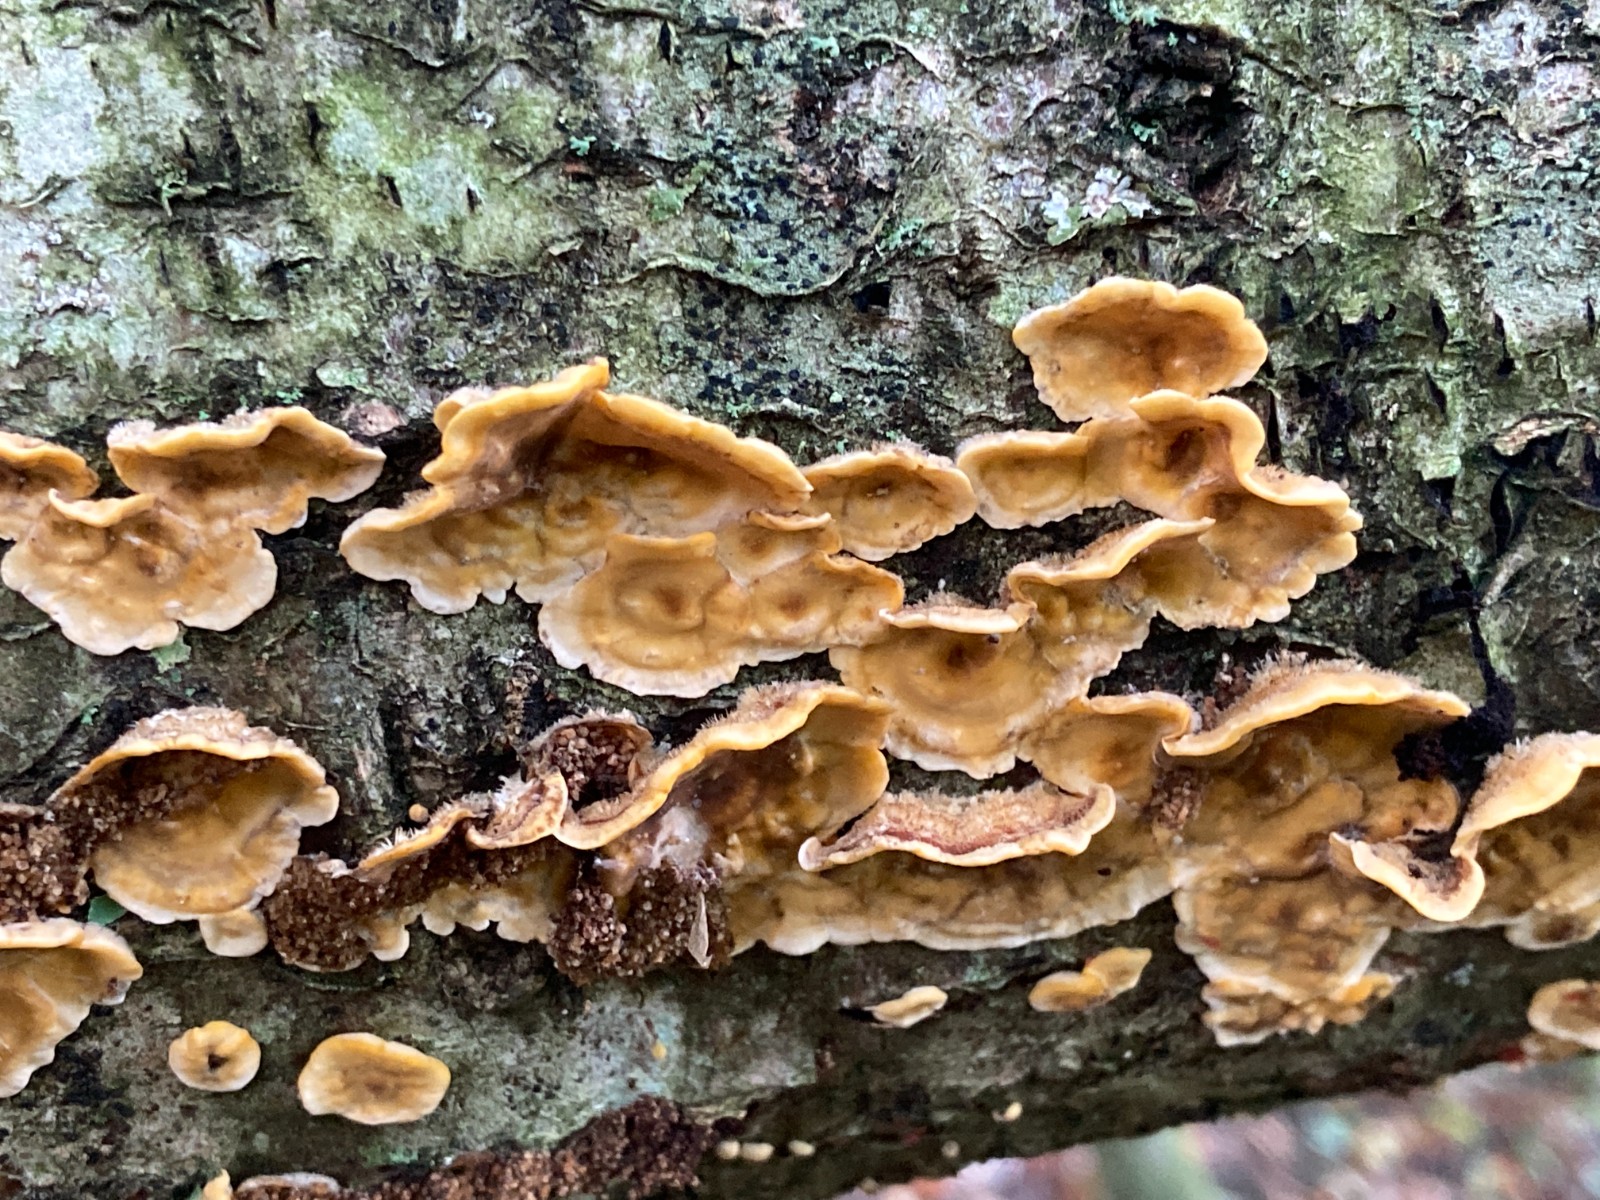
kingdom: Fungi
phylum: Basidiomycota
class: Agaricomycetes
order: Russulales
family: Stereaceae
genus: Stereum
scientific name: Stereum hirsutum
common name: håret lædersvamp
